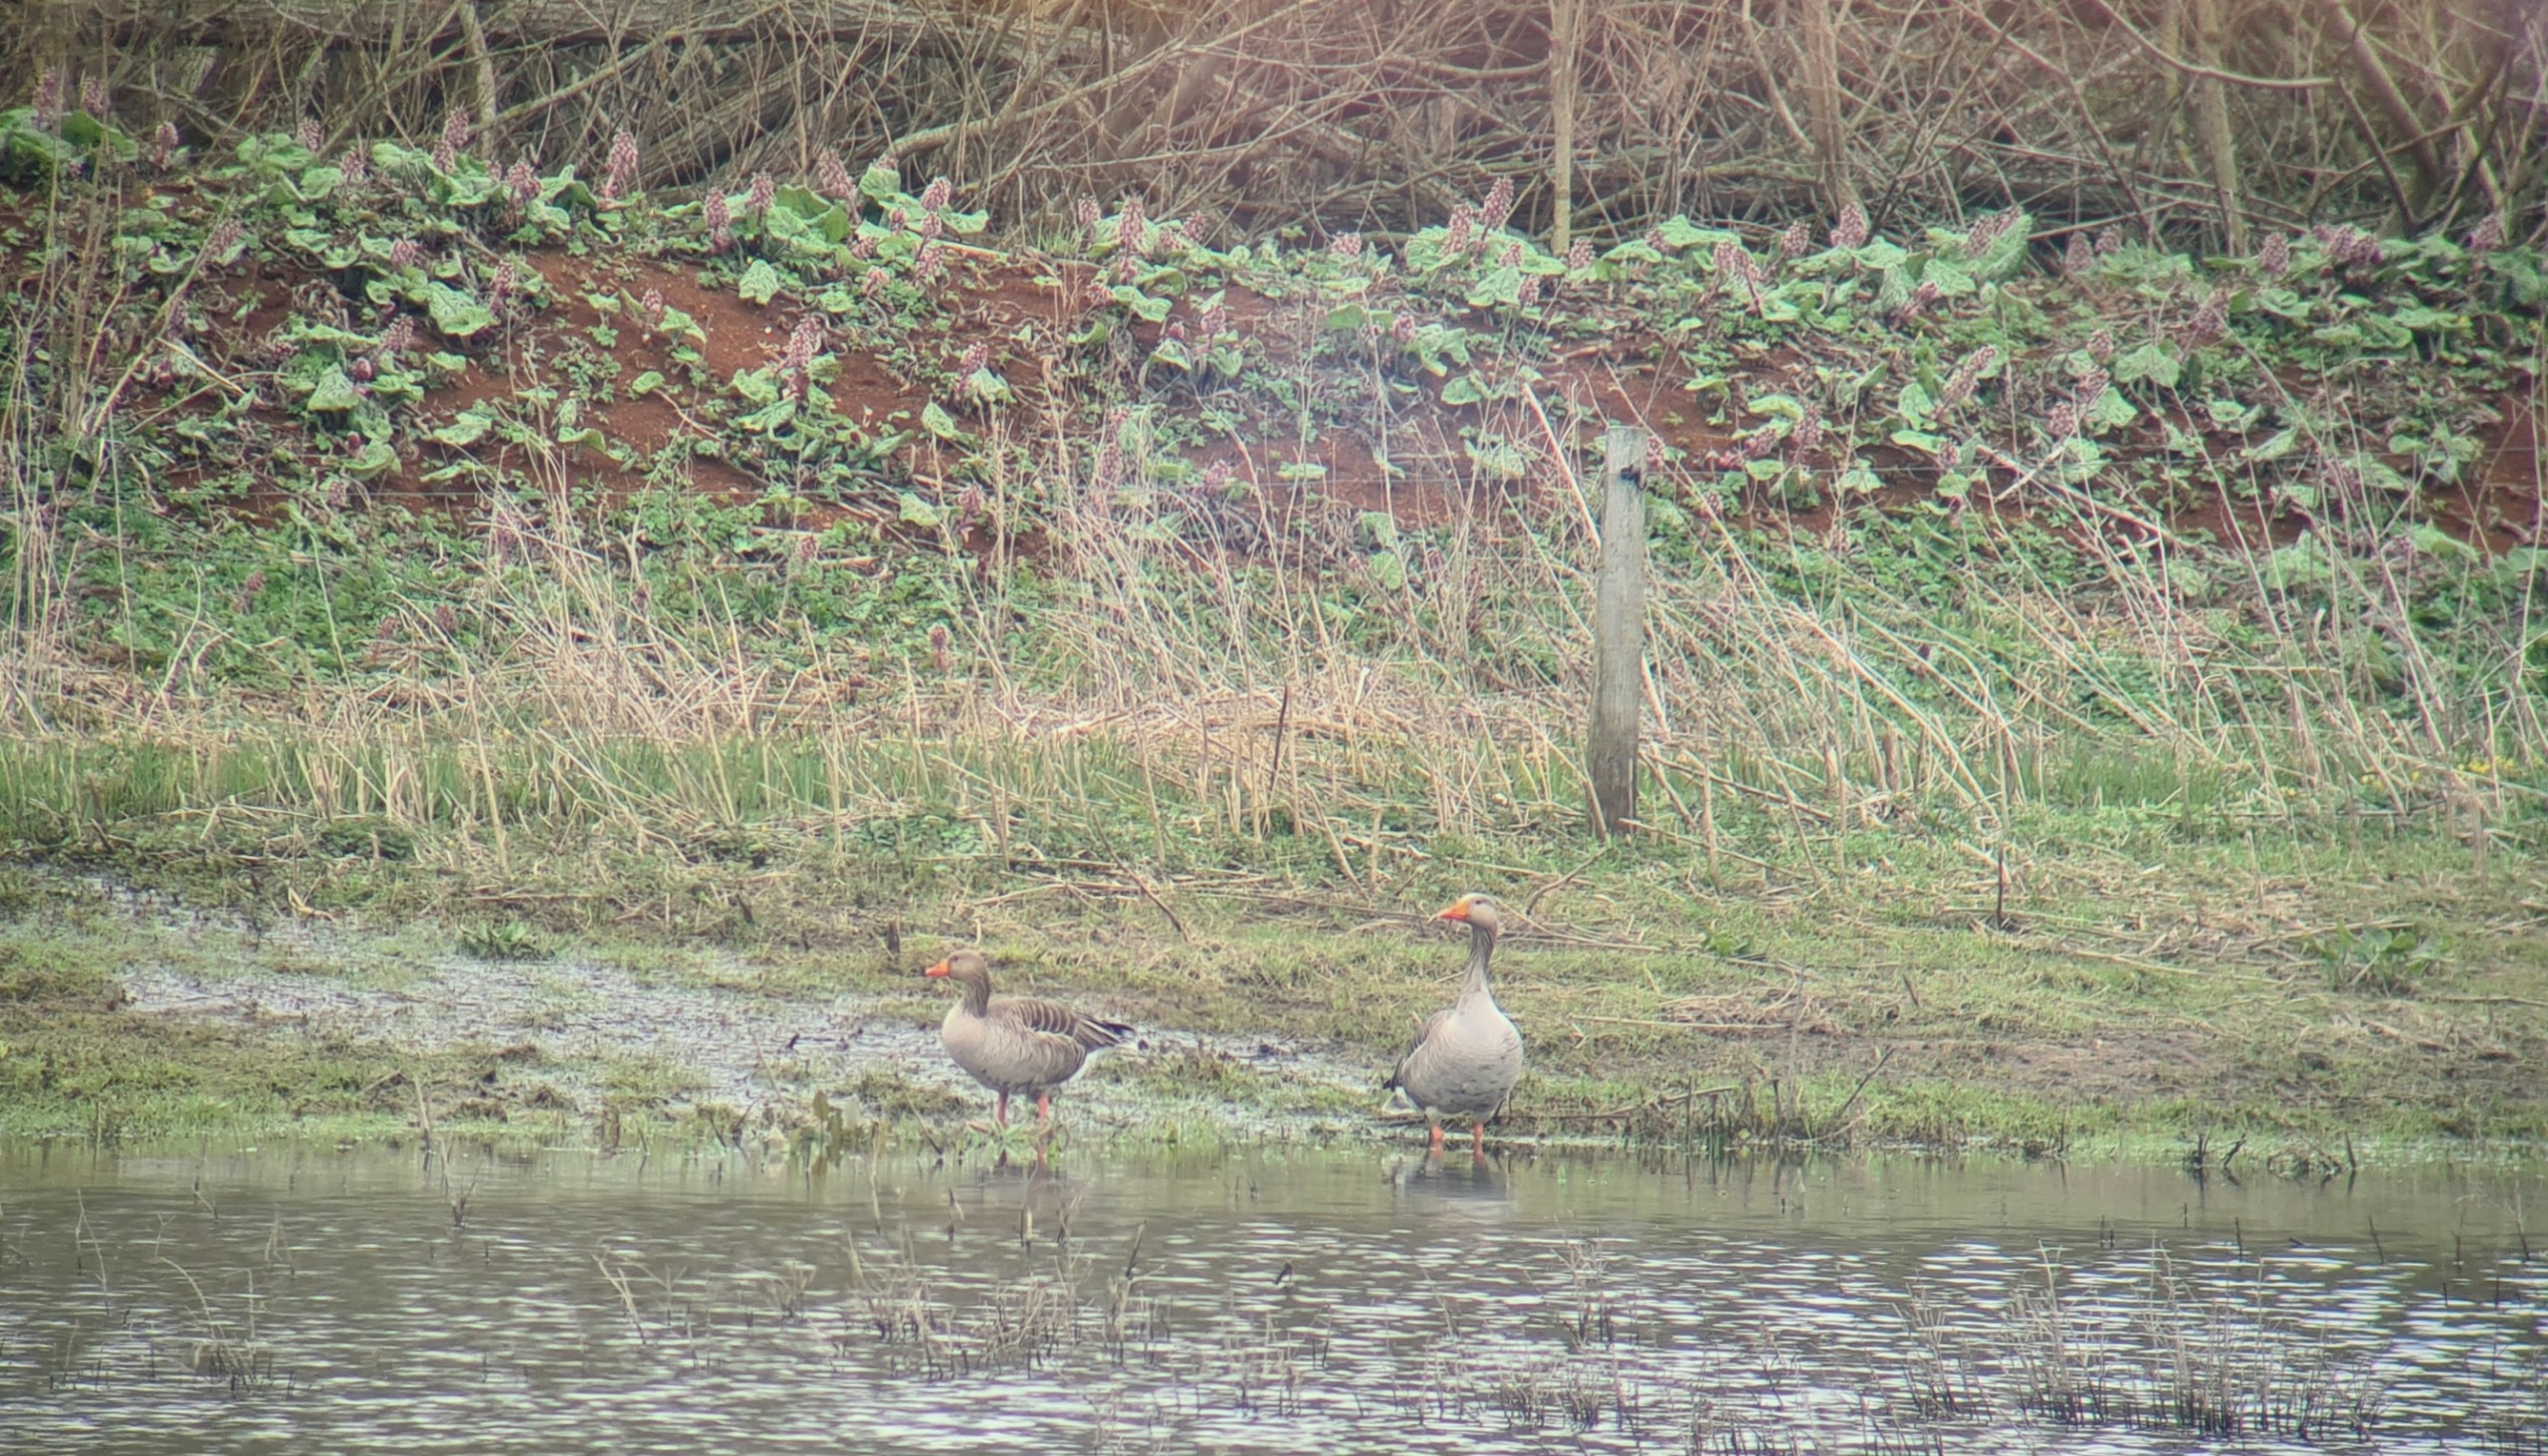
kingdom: Animalia
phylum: Chordata
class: Aves
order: Anseriformes
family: Anatidae
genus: Anser
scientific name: Anser anser
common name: Grågås
